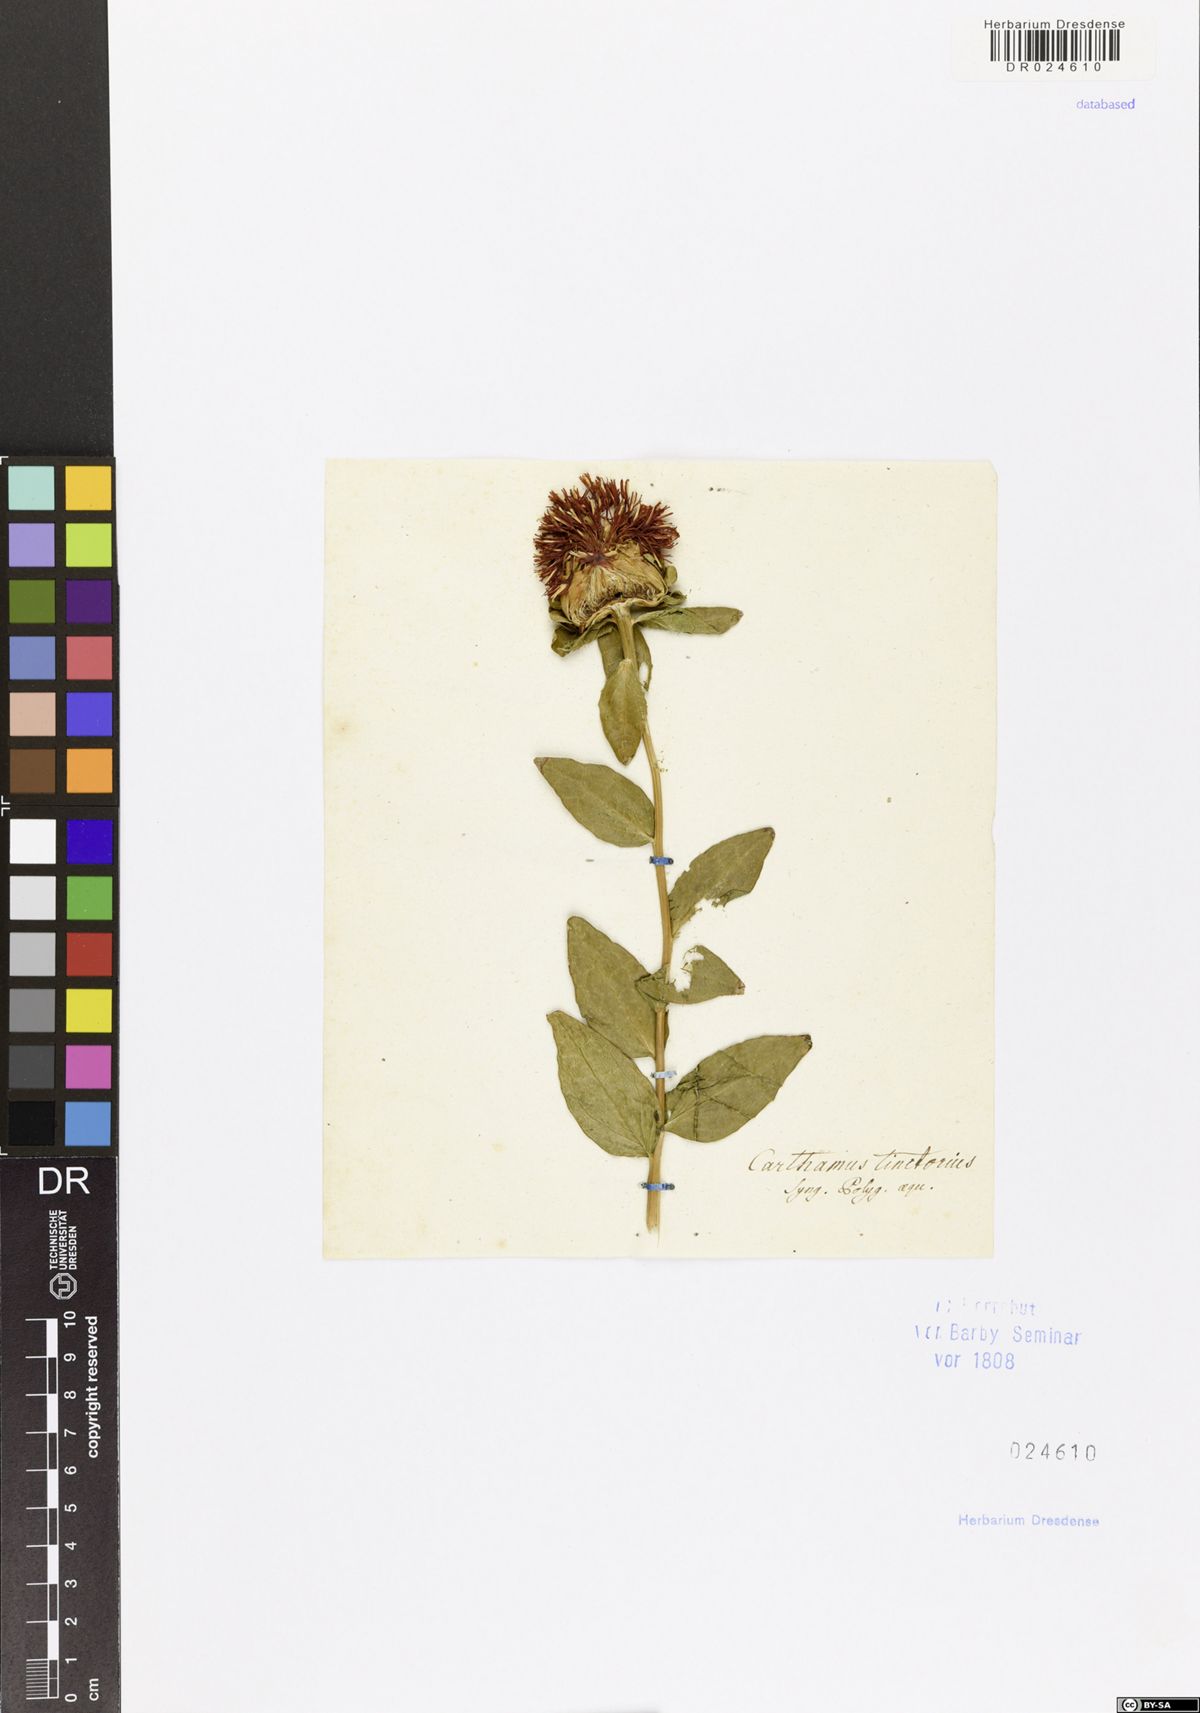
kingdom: Plantae
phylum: Tracheophyta
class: Magnoliopsida
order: Asterales
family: Asteraceae
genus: Carthamus
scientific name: Carthamus tinctorius
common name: Safflower
